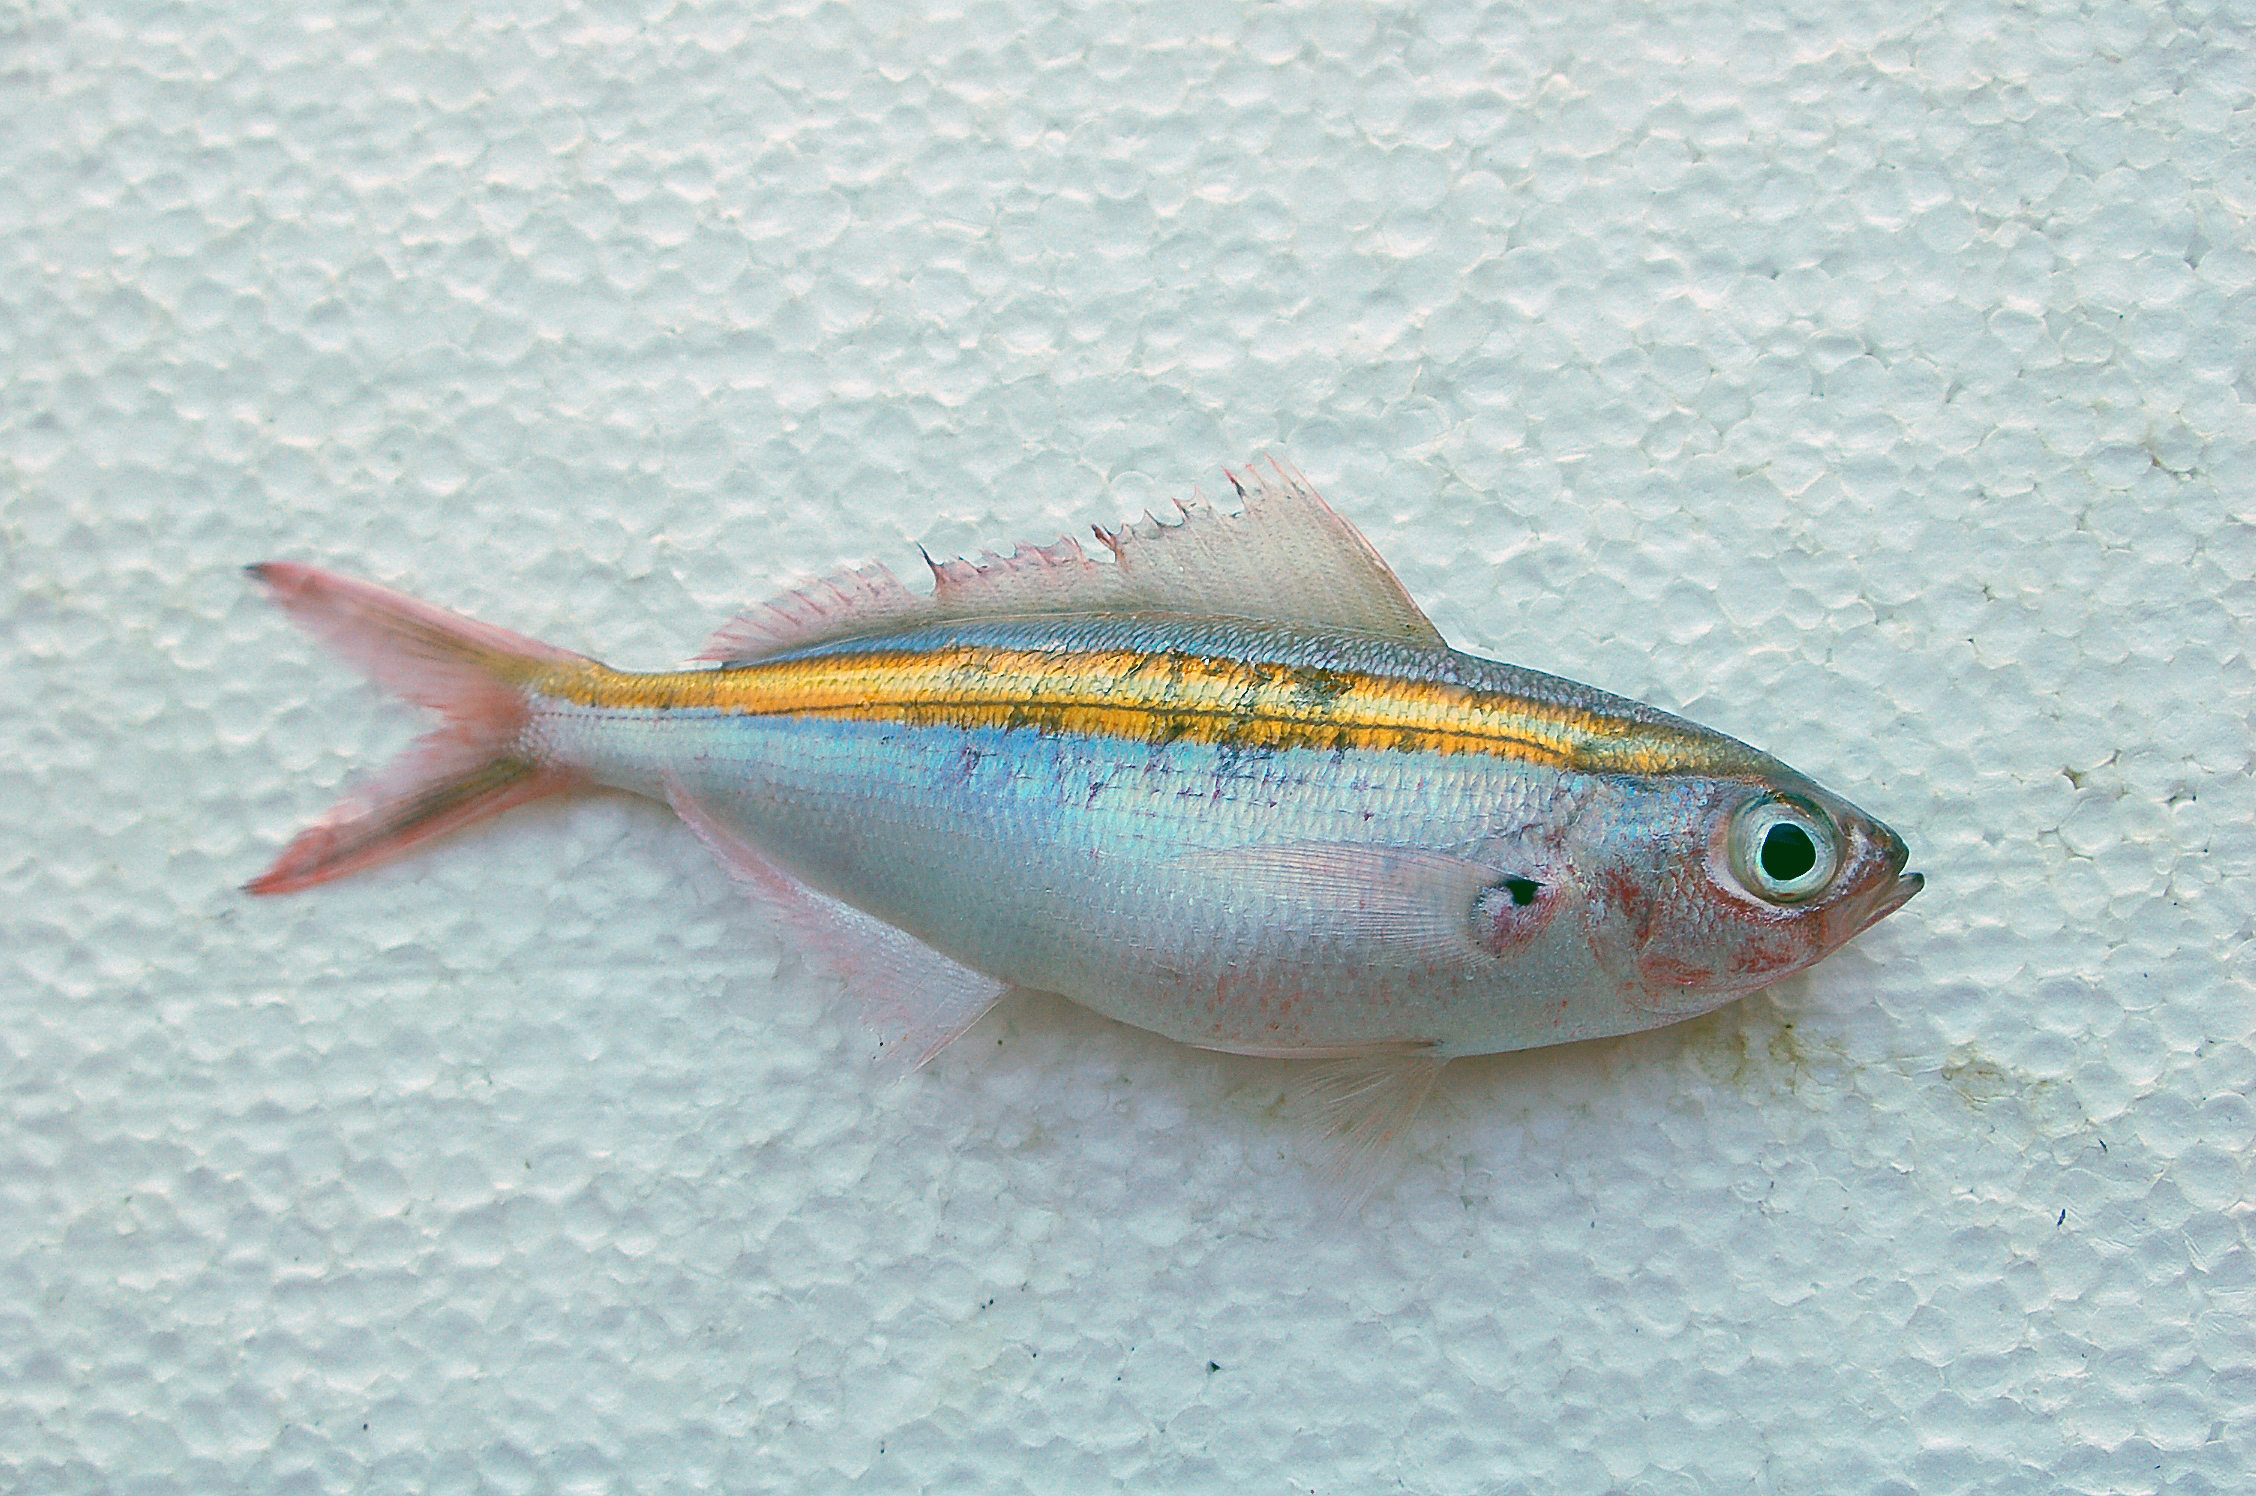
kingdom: Animalia
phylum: Chordata
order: Perciformes
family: Caesionidae
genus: Caesio
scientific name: Caesio xanthalytos
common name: Goldsash fusilier
